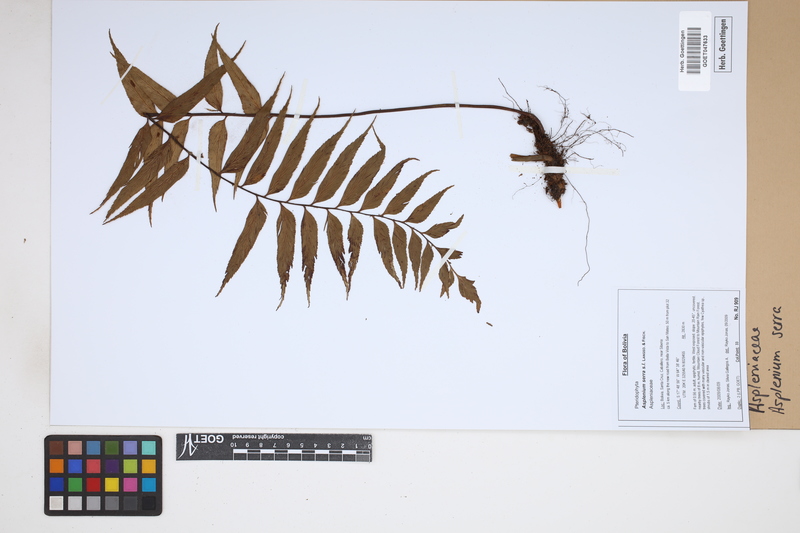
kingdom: Plantae
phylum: Tracheophyta
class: Polypodiopsida
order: Polypodiales
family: Aspleniaceae
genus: Asplenium
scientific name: Asplenium serra
